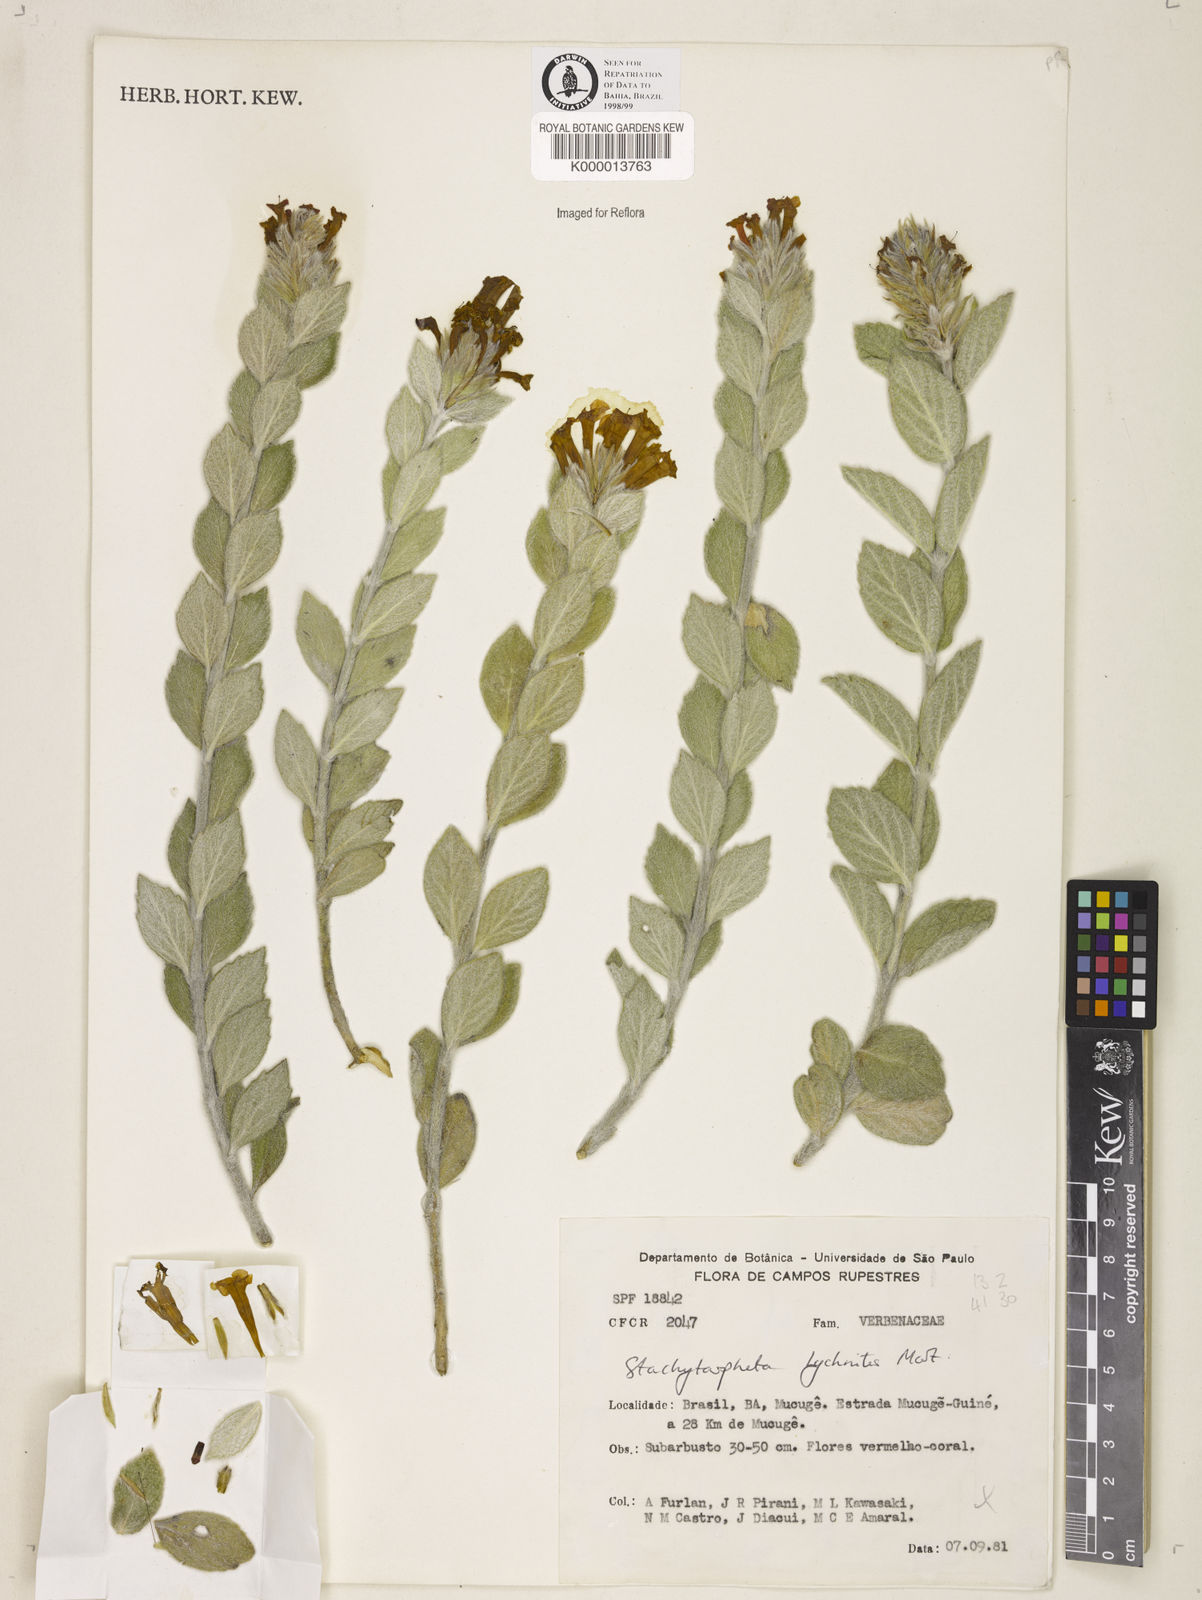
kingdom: Plantae
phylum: Tracheophyta
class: Magnoliopsida
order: Lamiales
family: Verbenaceae
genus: Stachytarpheta
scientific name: Stachytarpheta
